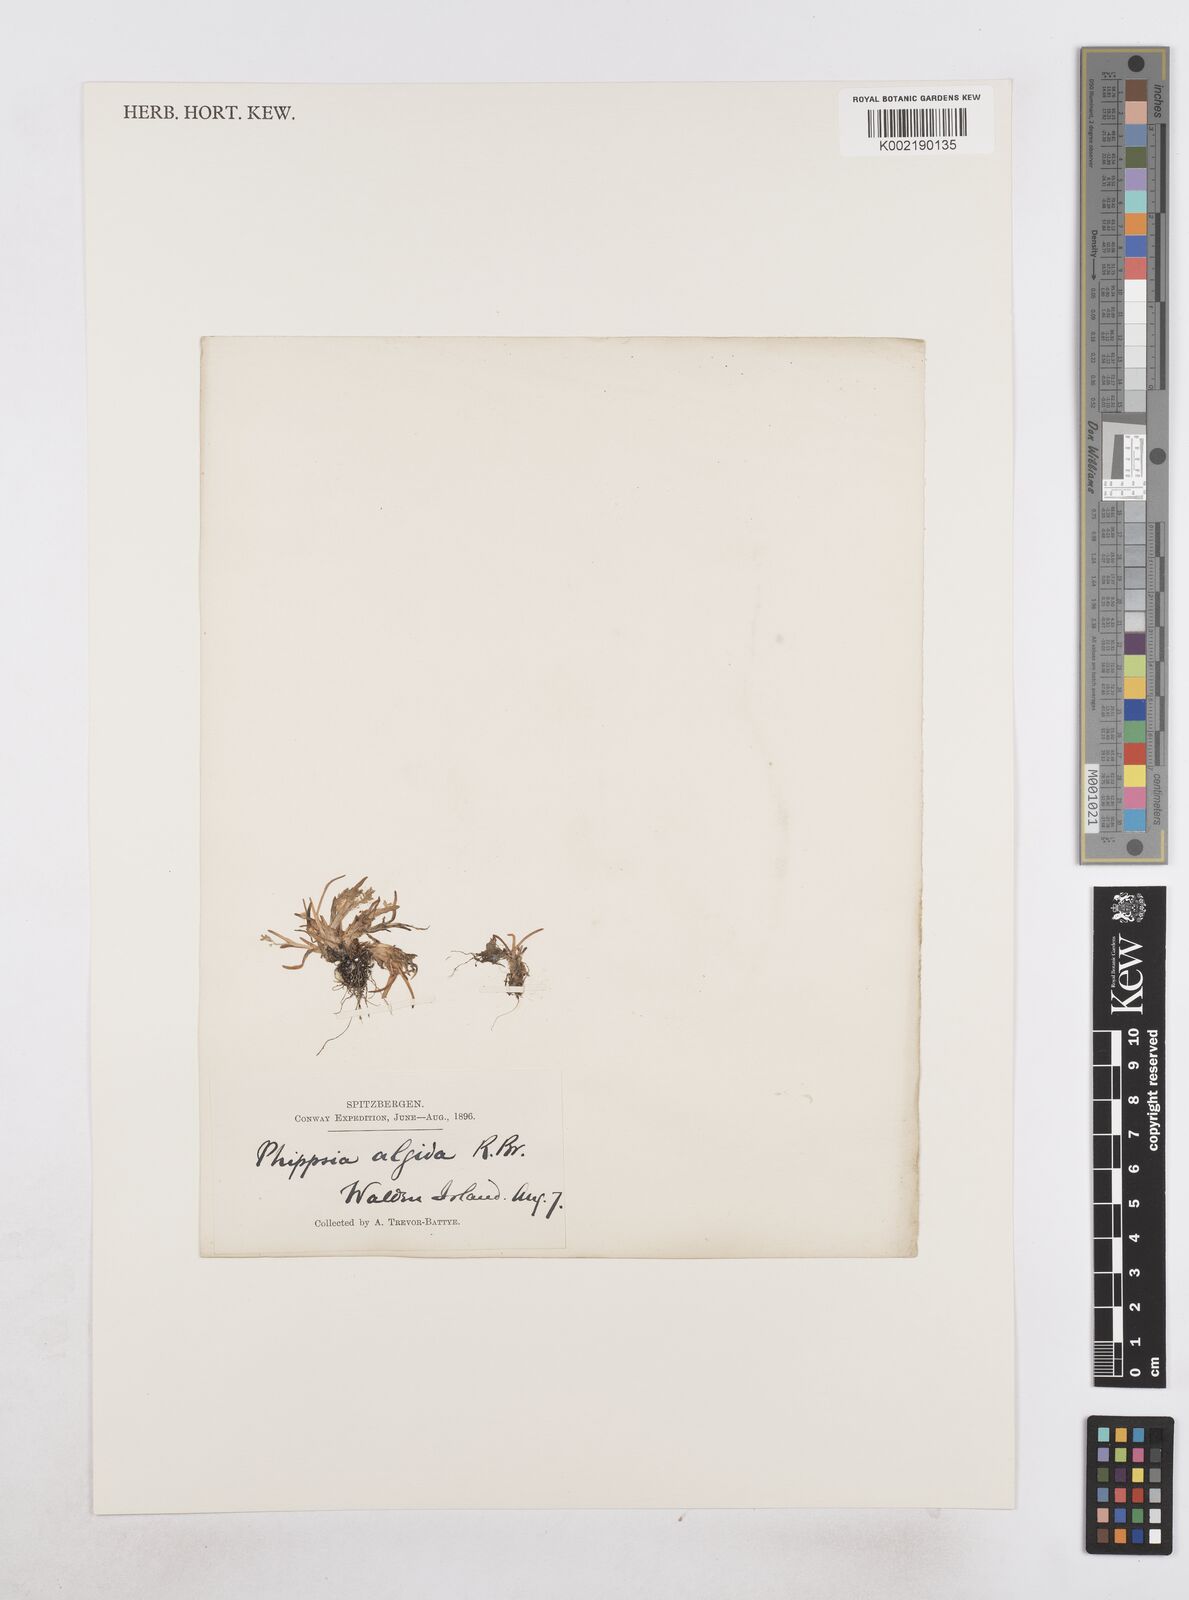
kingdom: Plantae
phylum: Tracheophyta
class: Liliopsida
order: Poales
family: Poaceae
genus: Phippsia
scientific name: Phippsia algida
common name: Ice grass
